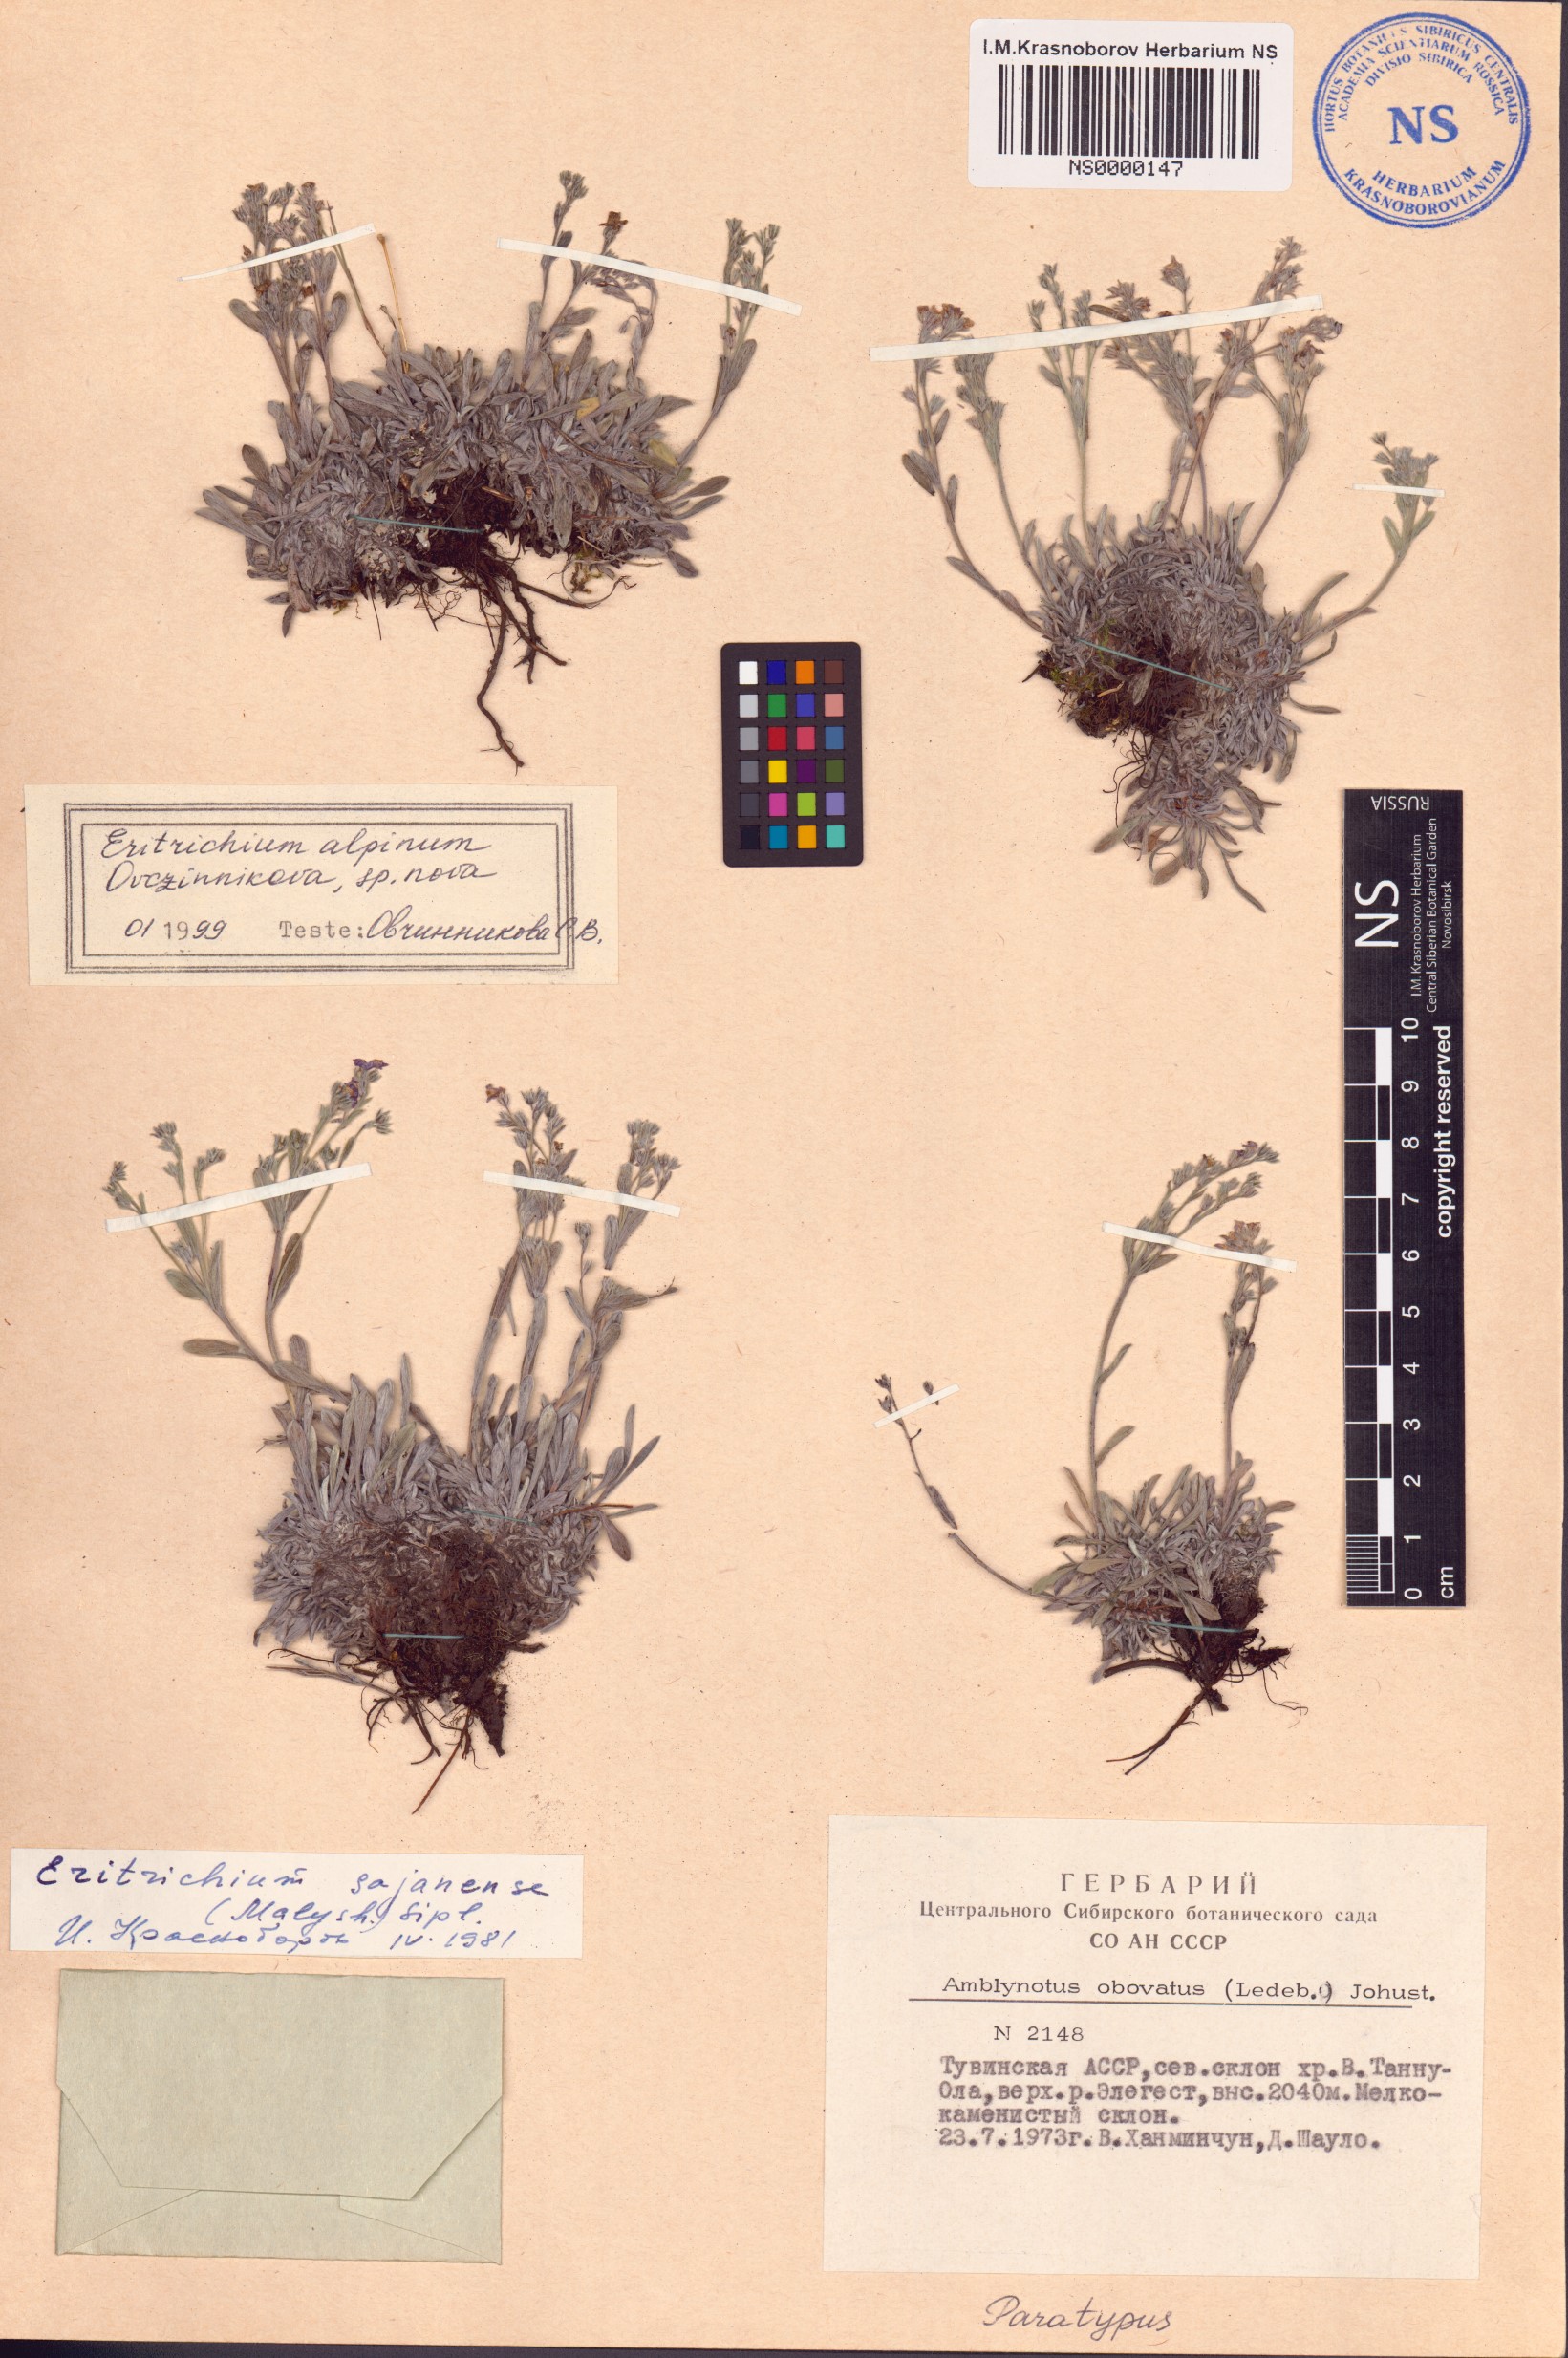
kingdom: Plantae
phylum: Tracheophyta
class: Magnoliopsida
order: Boraginales
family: Boraginaceae
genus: Eritrichium
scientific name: Eritrichium alpinum
